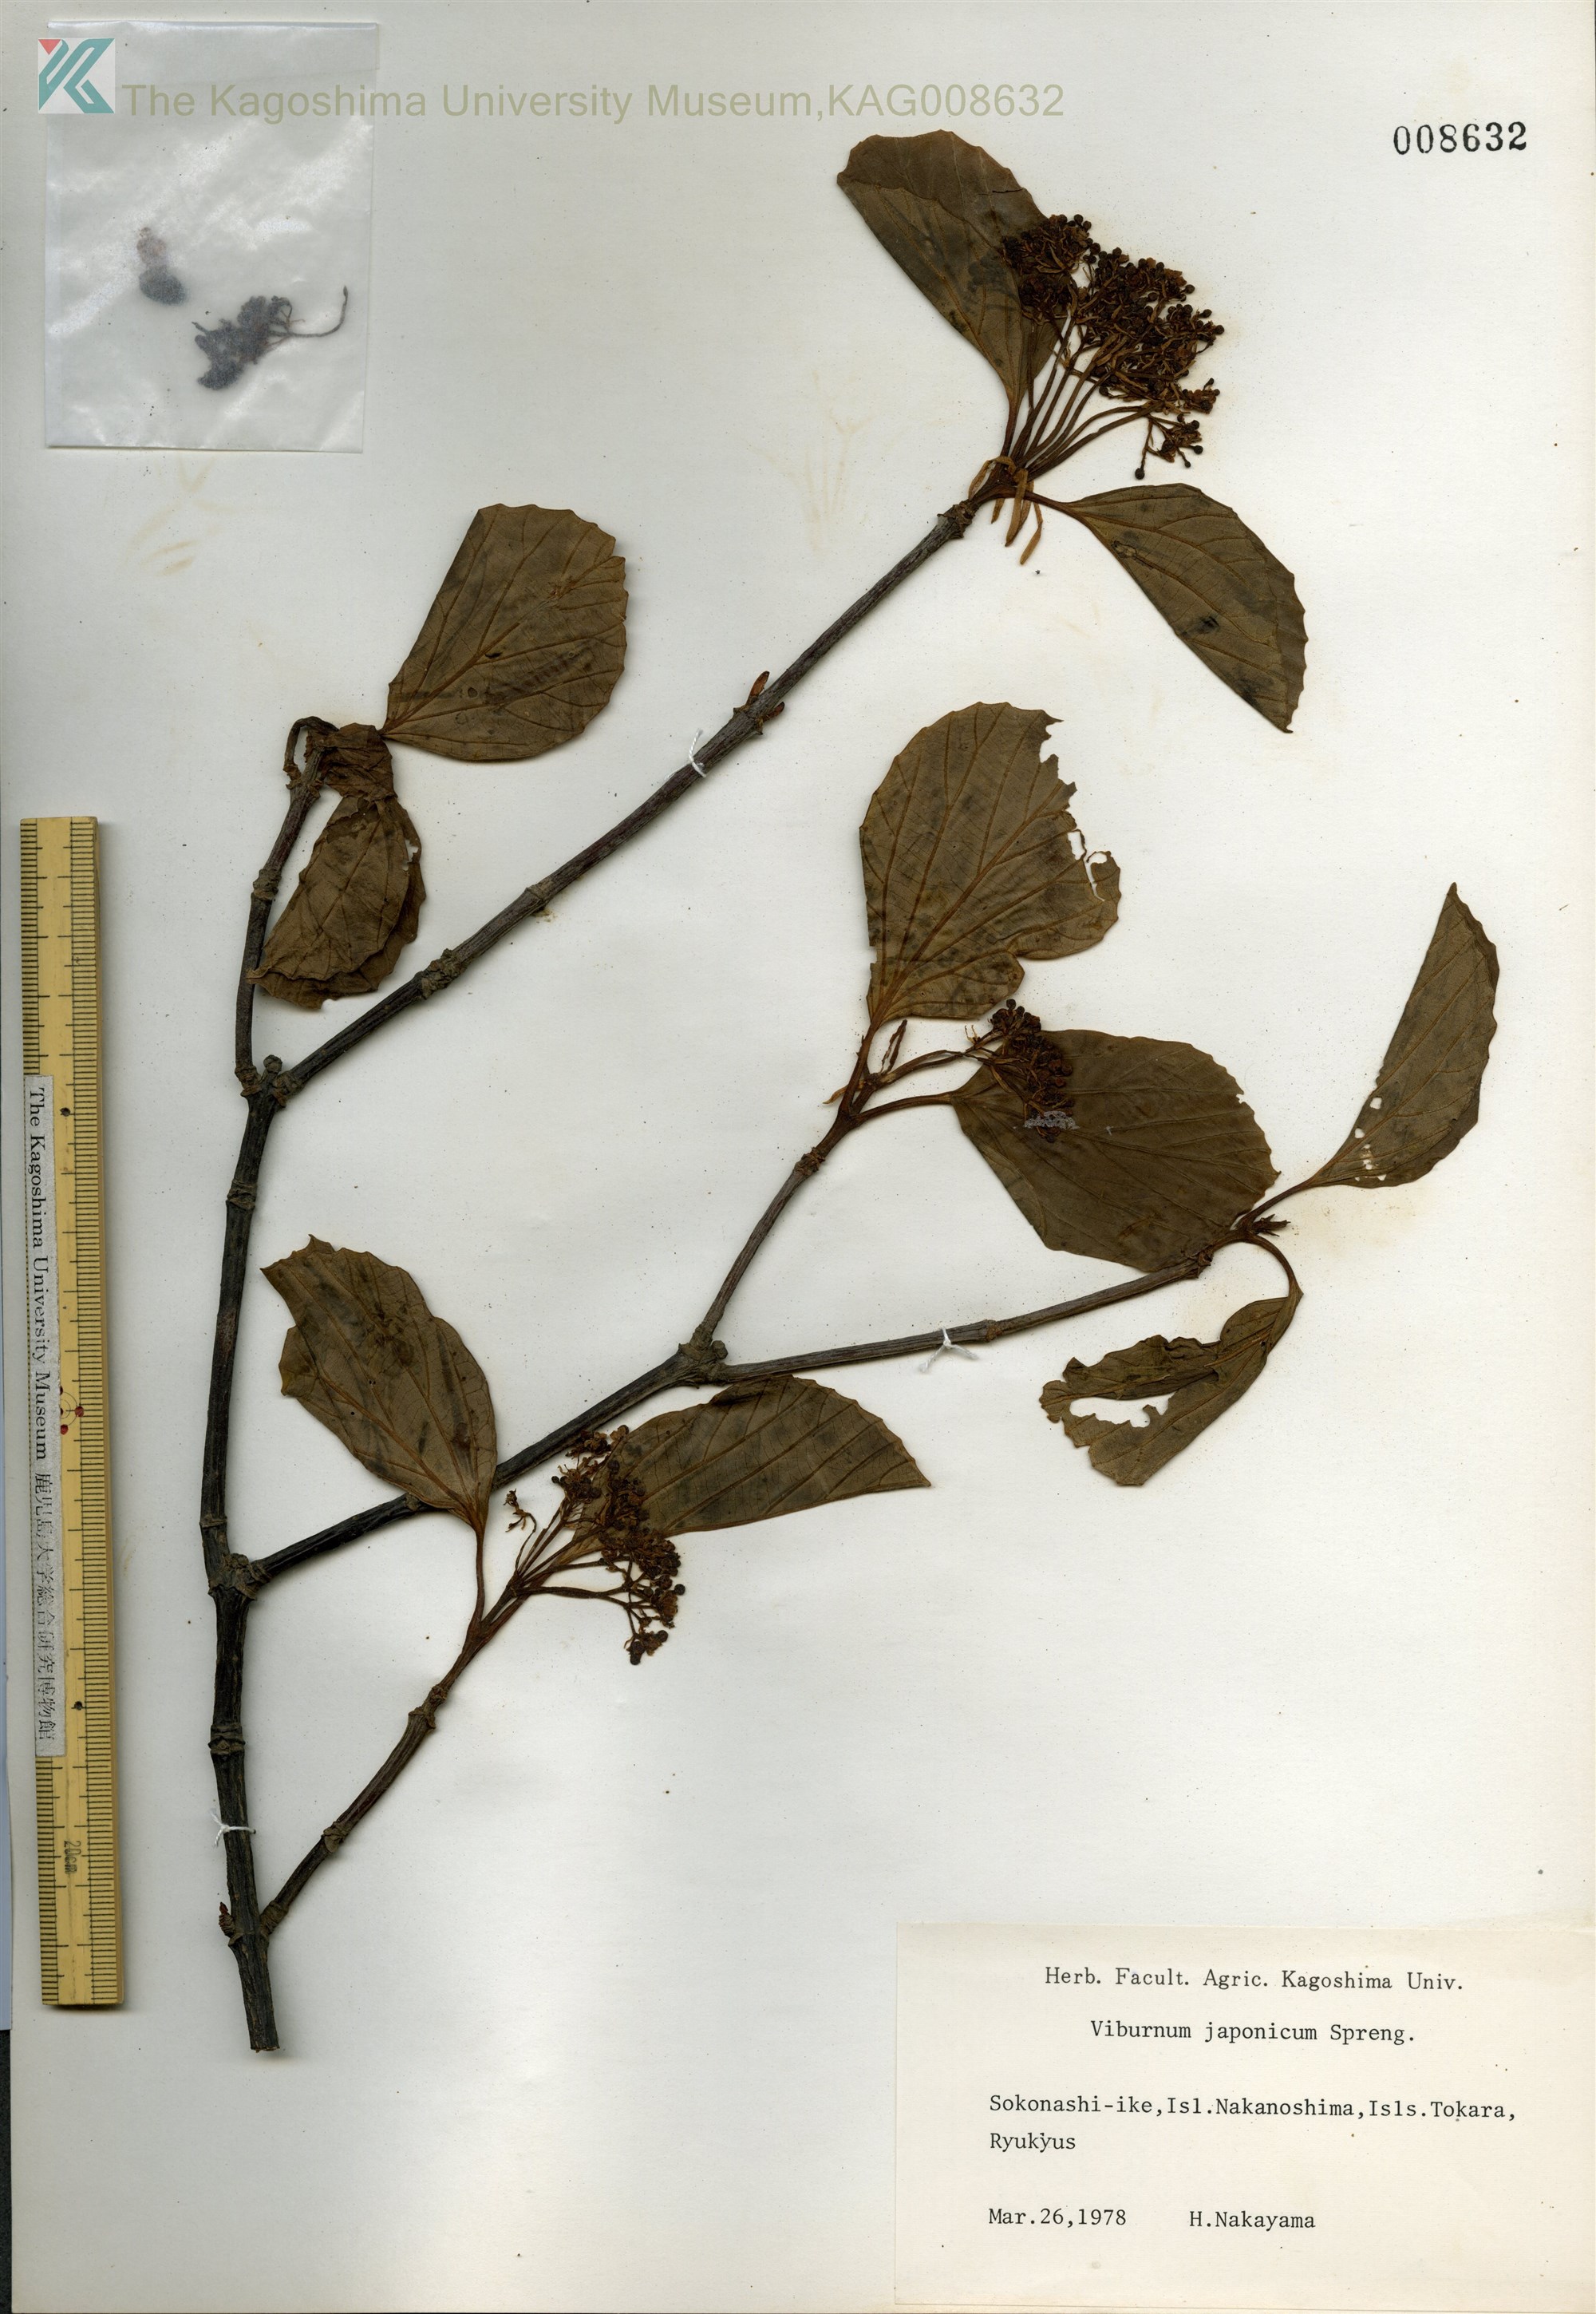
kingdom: Plantae
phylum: Tracheophyta
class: Magnoliopsida
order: Dipsacales
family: Viburnaceae
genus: Viburnum
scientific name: Viburnum japonicum
